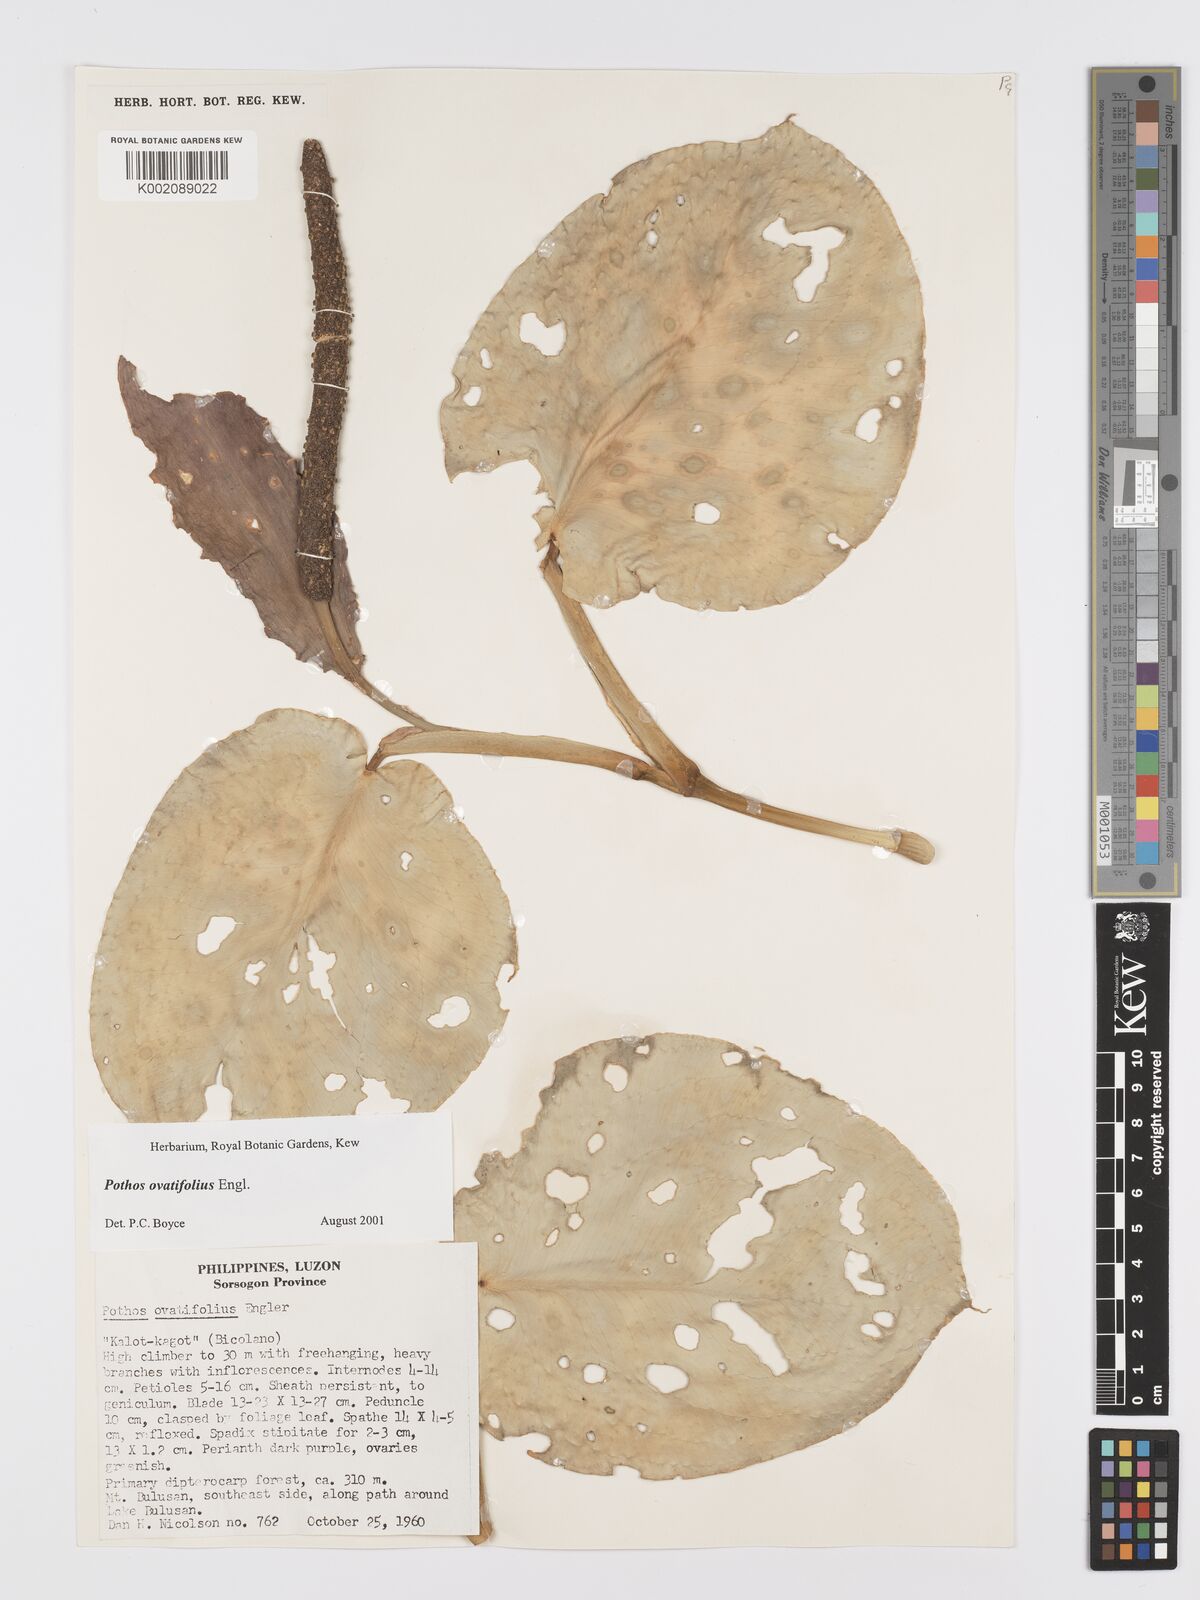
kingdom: Plantae
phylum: Tracheophyta
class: Liliopsida
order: Alismatales
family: Araceae
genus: Pothos
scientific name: Pothos ovatifolius
